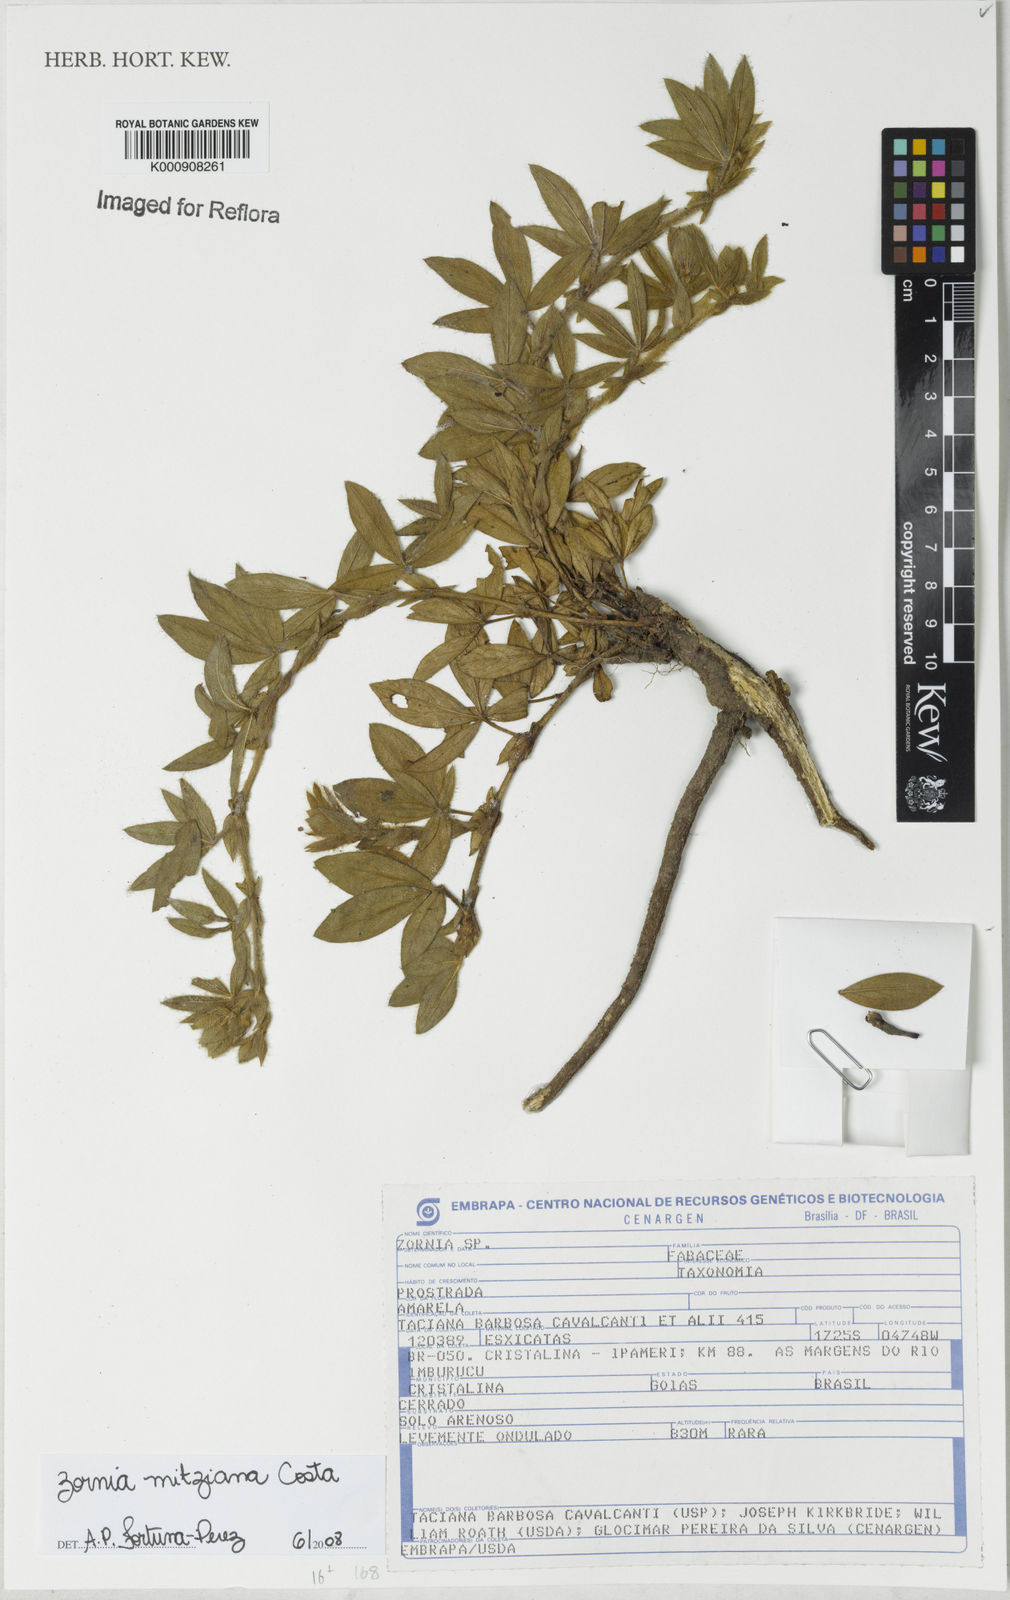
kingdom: Plantae
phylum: Tracheophyta
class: Magnoliopsida
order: Fabales
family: Fabaceae
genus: Zornia
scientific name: Zornia mitziana
